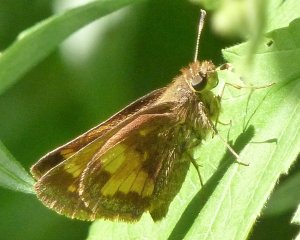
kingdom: Animalia
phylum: Arthropoda
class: Insecta
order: Lepidoptera
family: Hesperiidae
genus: Lon
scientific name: Lon hobomok
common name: Hobomok Skipper
